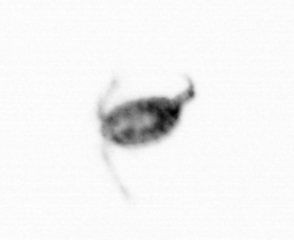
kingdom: Animalia
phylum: Arthropoda
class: Copepoda
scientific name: Copepoda
